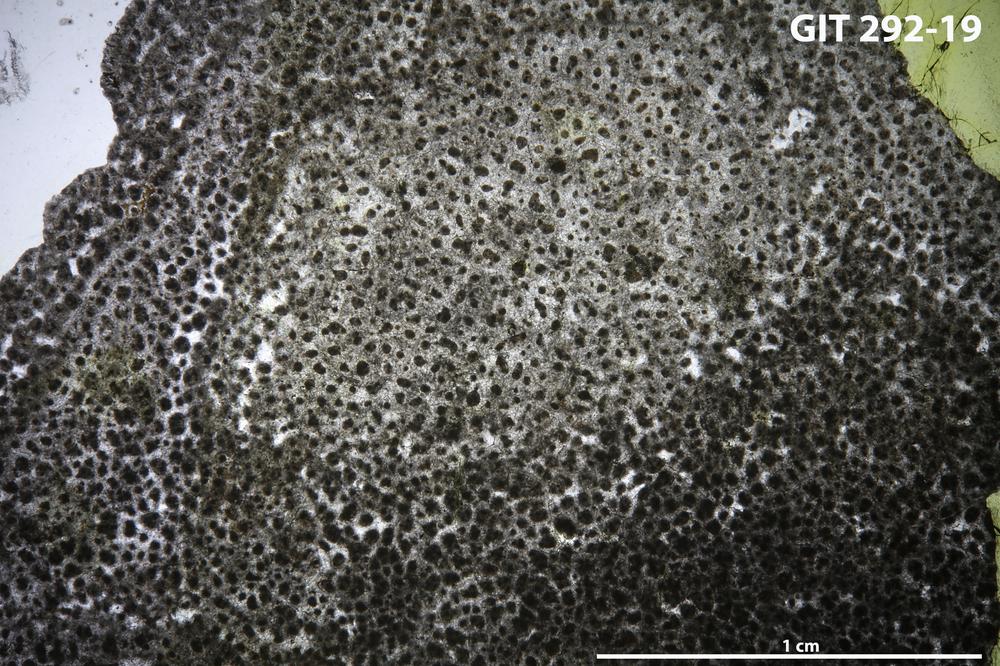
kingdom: Animalia
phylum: Porifera
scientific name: Porifera
